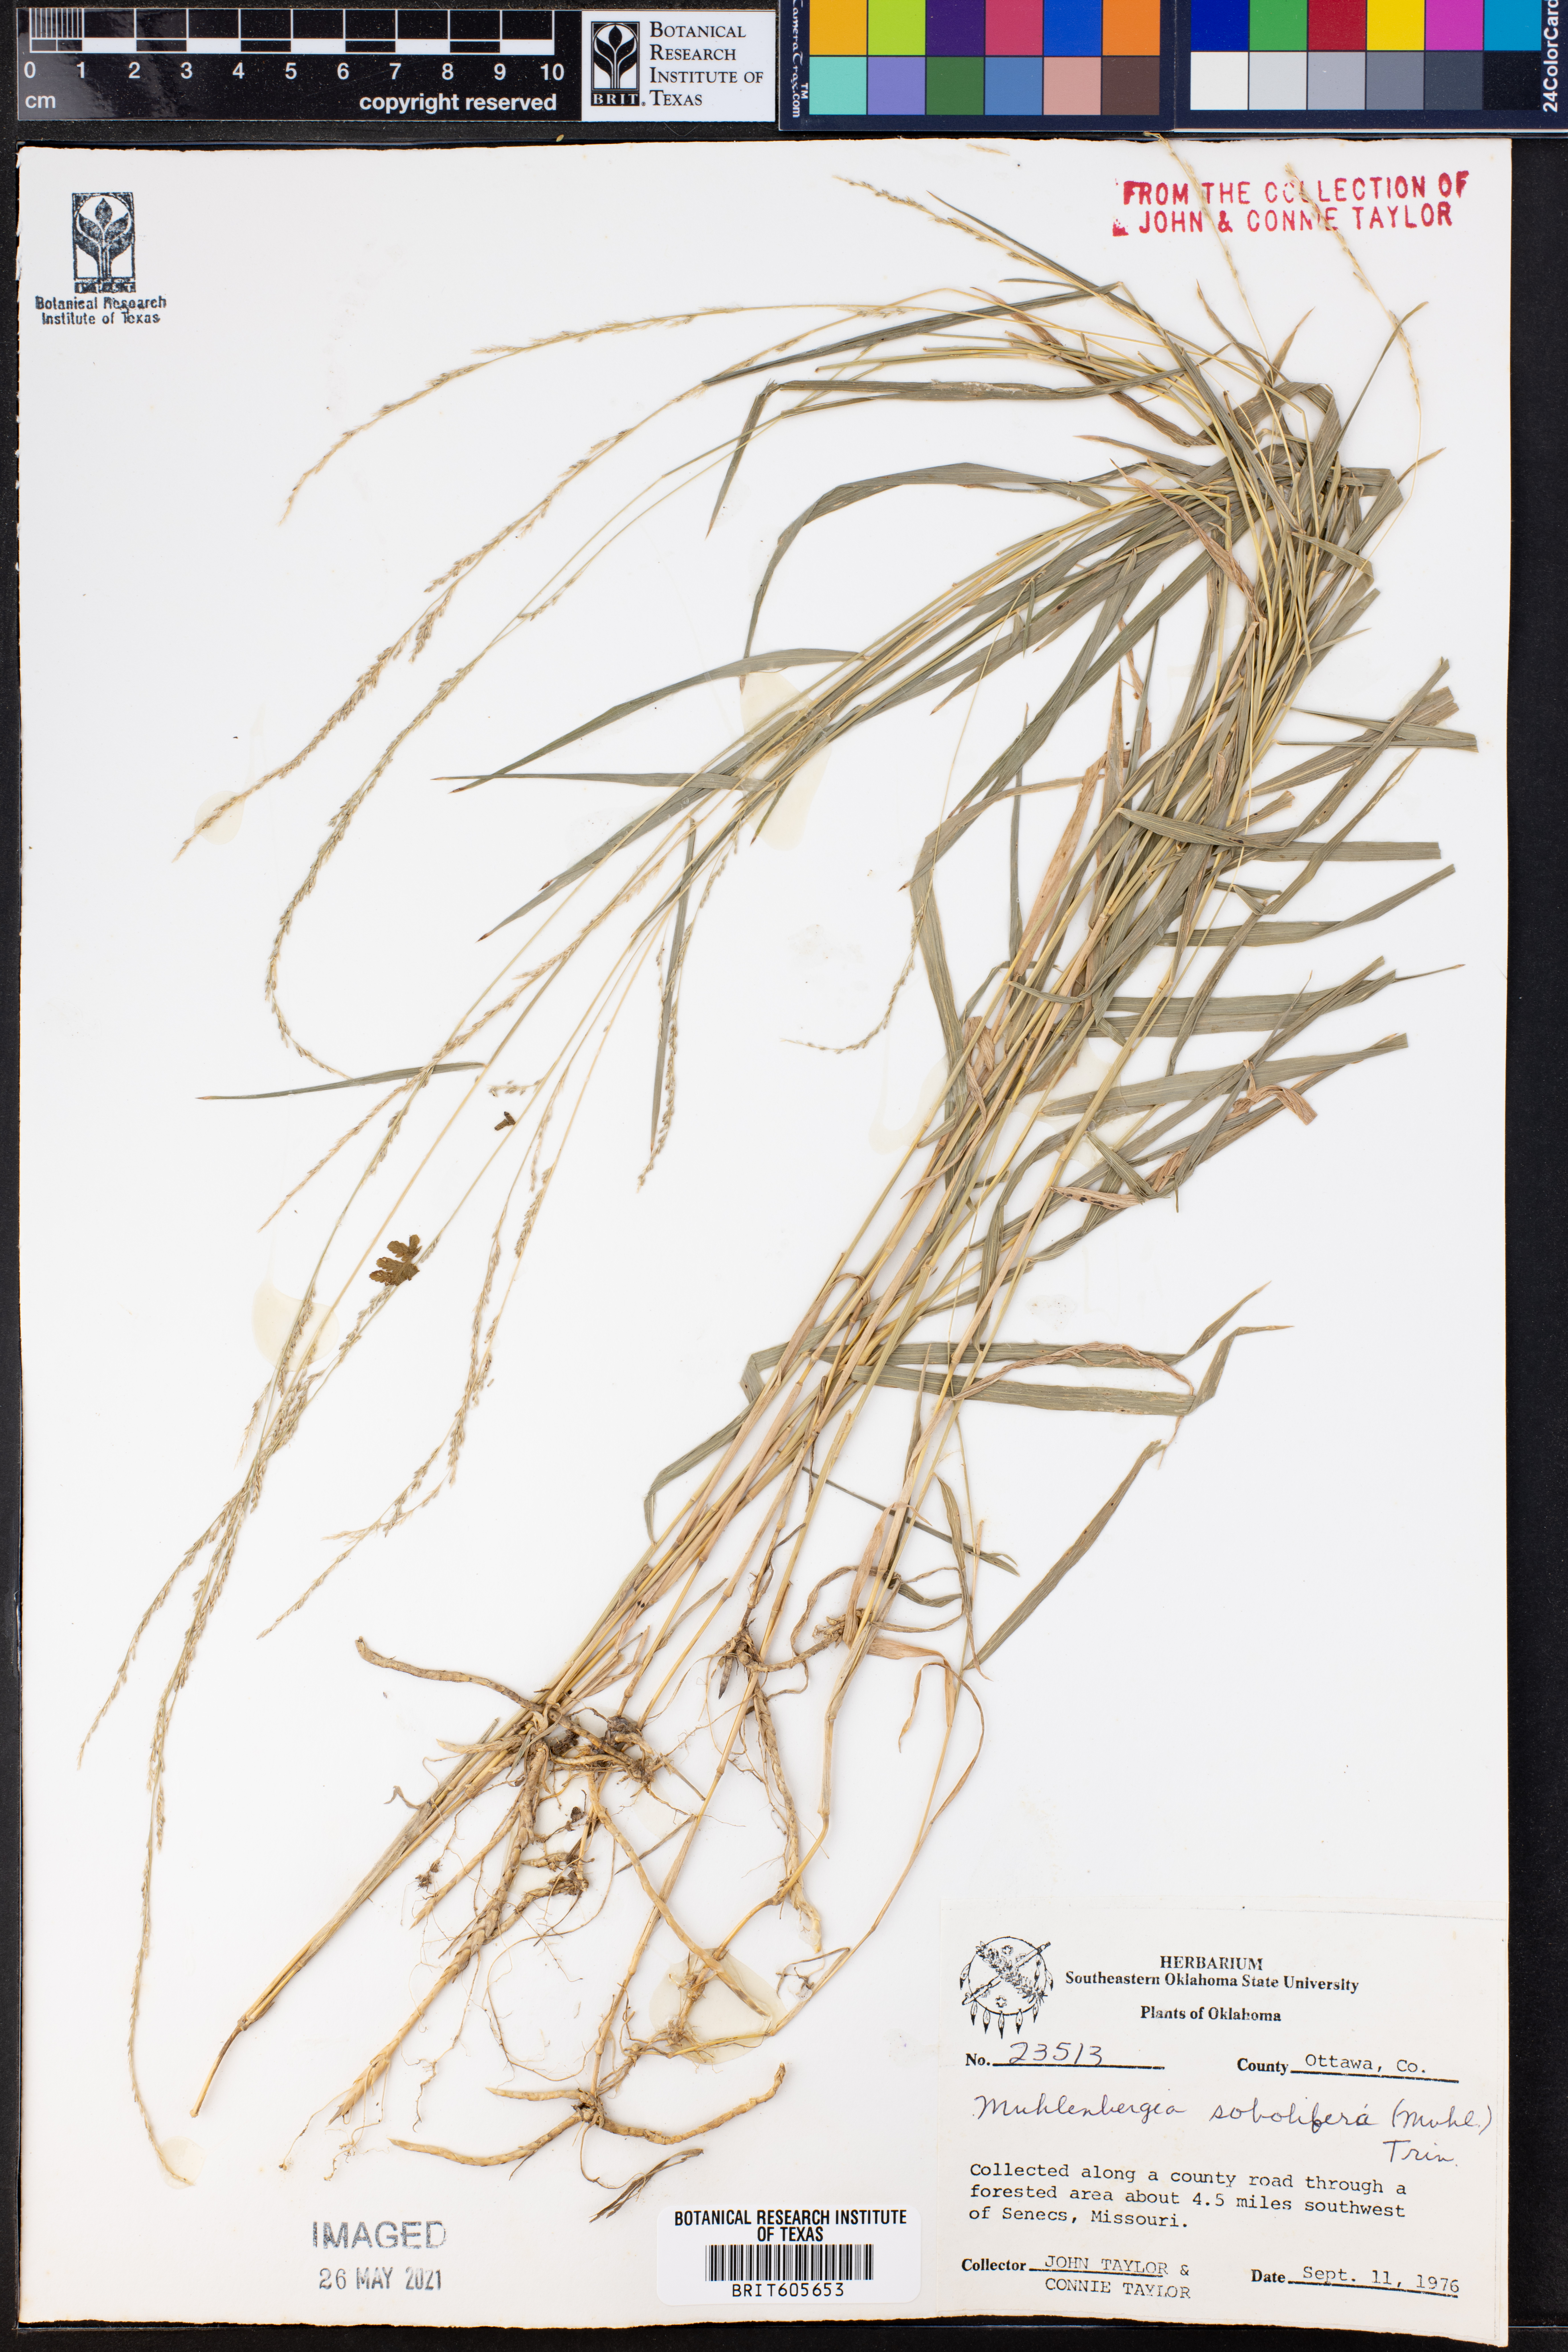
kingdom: Plantae
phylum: Tracheophyta
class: Liliopsida
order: Poales
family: Poaceae
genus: Muhlenbergia
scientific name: Muhlenbergia sobolifera
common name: Creeping muhly
